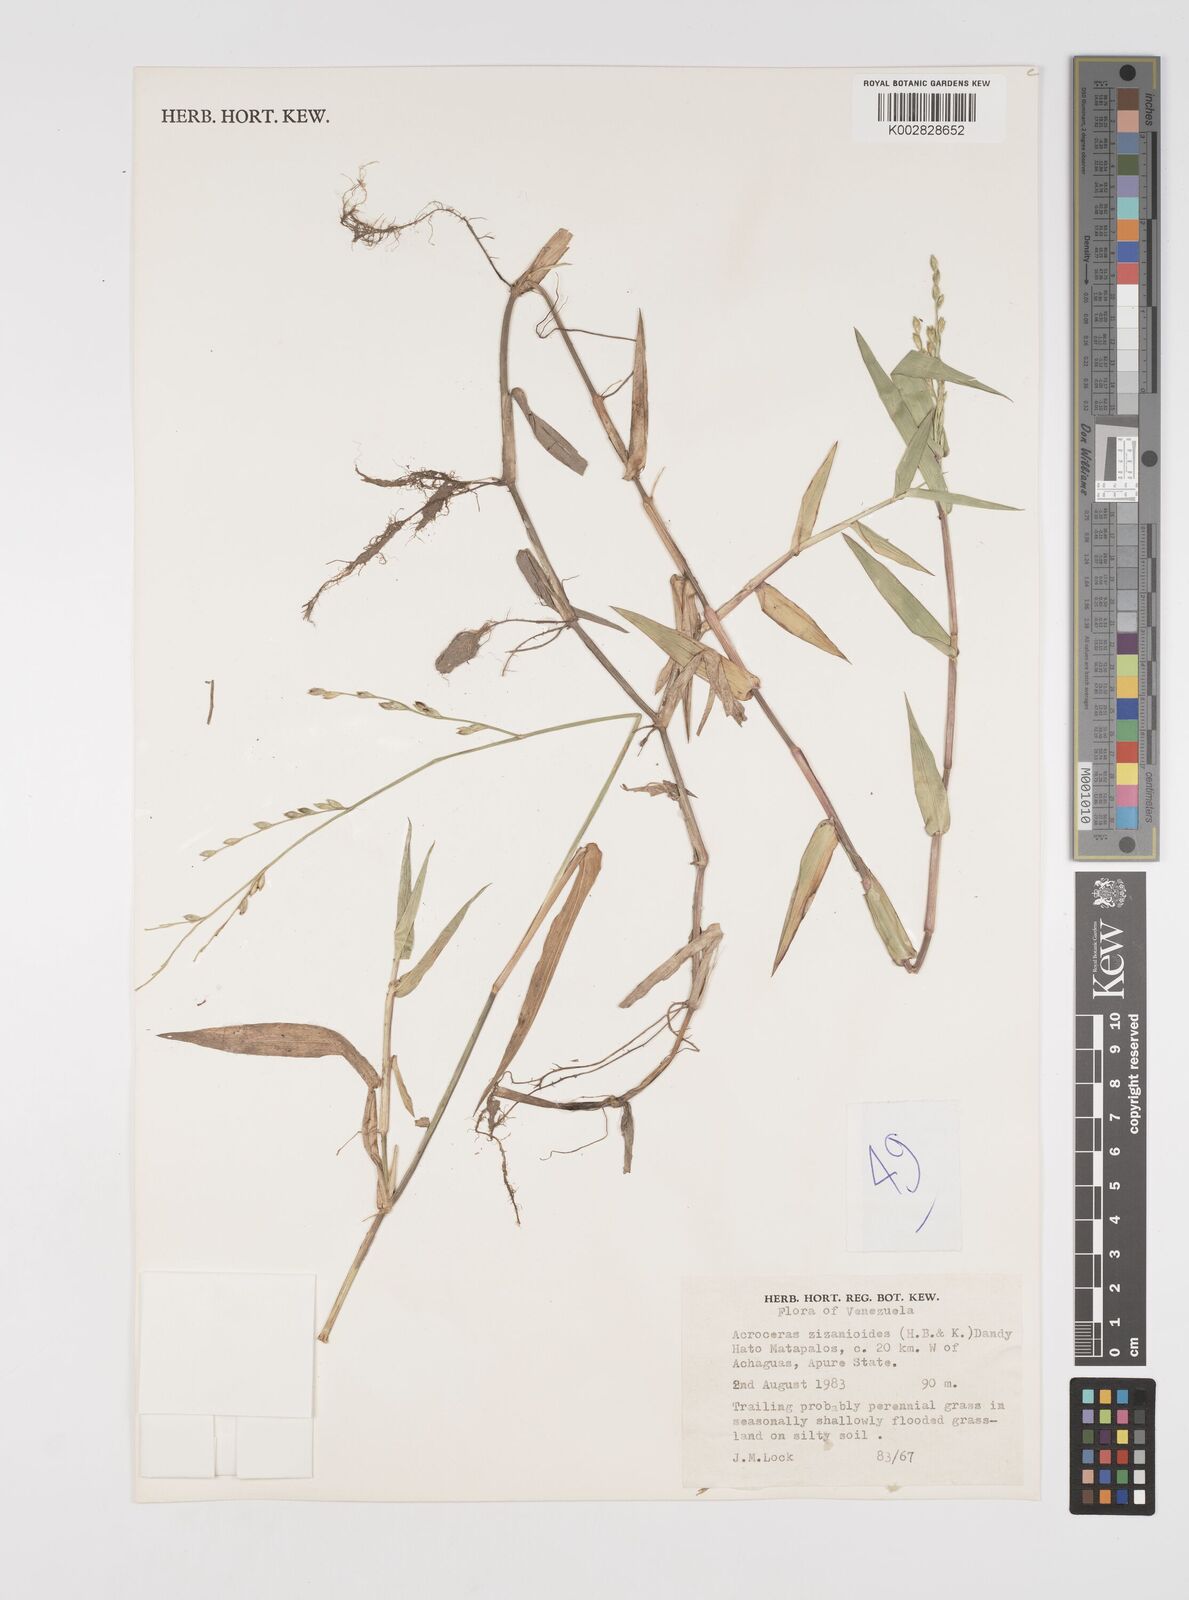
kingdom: Plantae
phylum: Tracheophyta
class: Liliopsida
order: Poales
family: Poaceae
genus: Acroceras
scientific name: Acroceras zizanioides
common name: Oat grass
